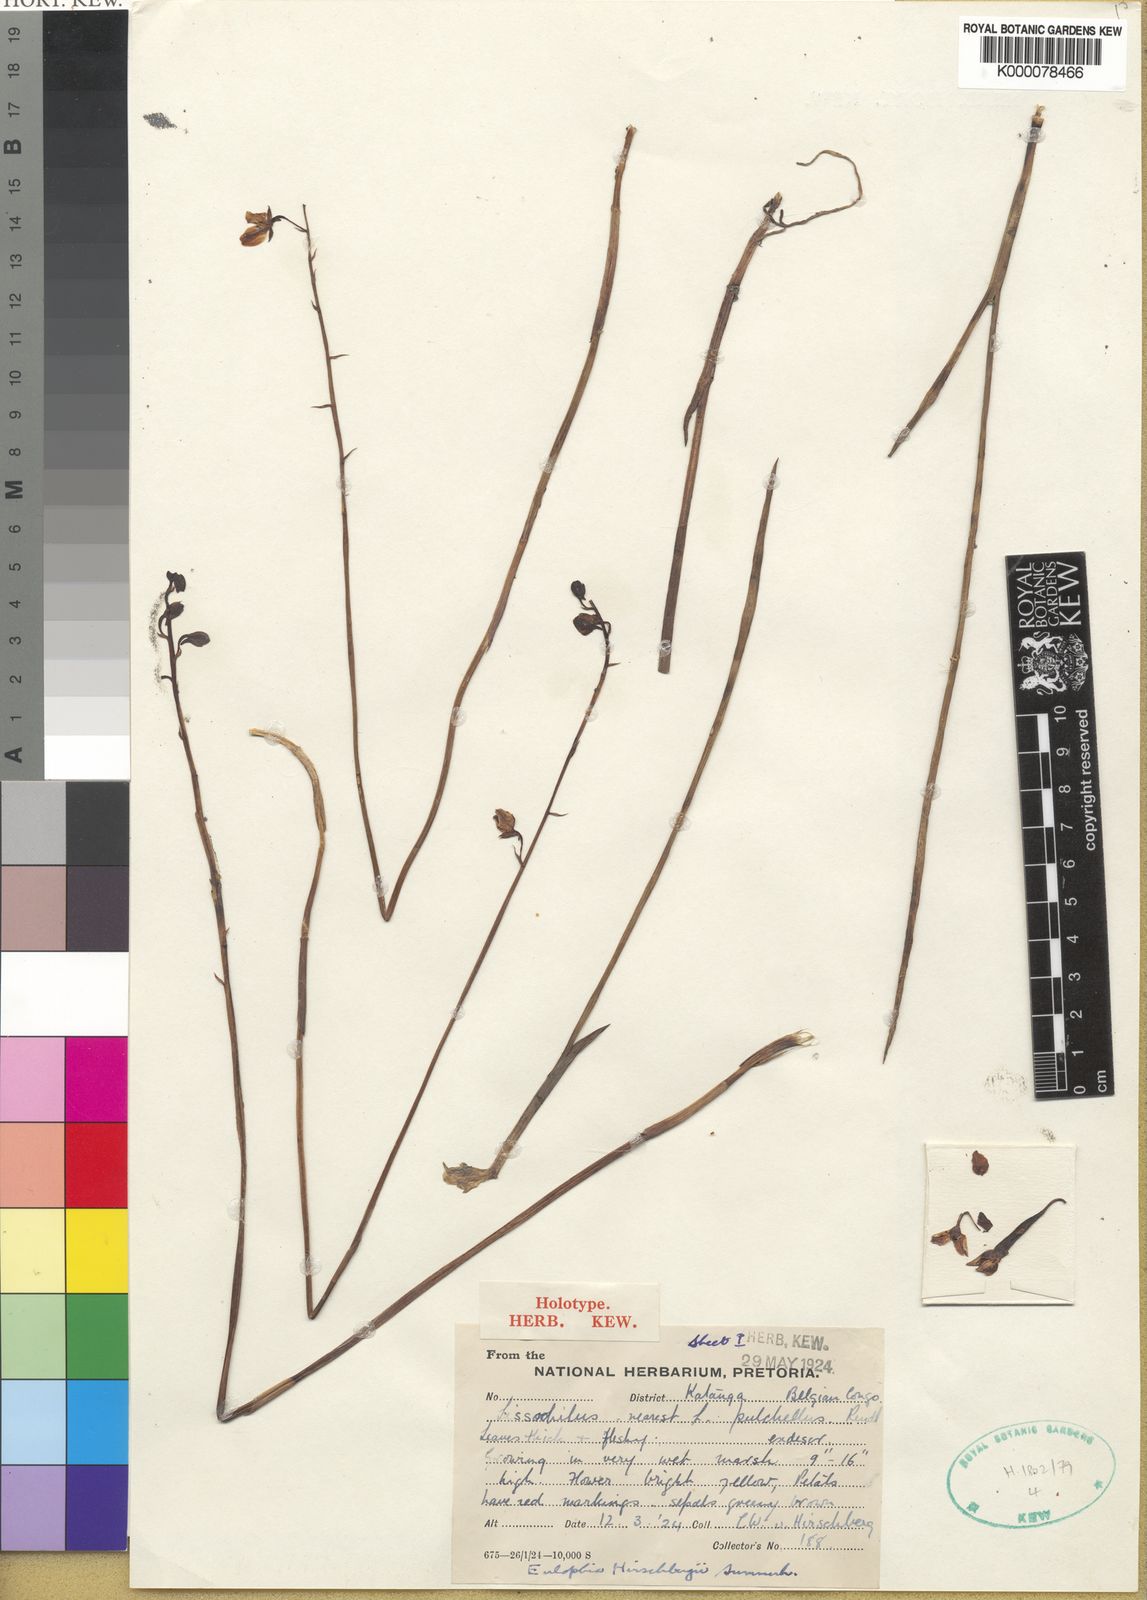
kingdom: Plantae
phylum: Tracheophyta
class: Liliopsida
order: Asparagales
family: Orchidaceae
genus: Eulophia
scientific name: Eulophia clitellifera
